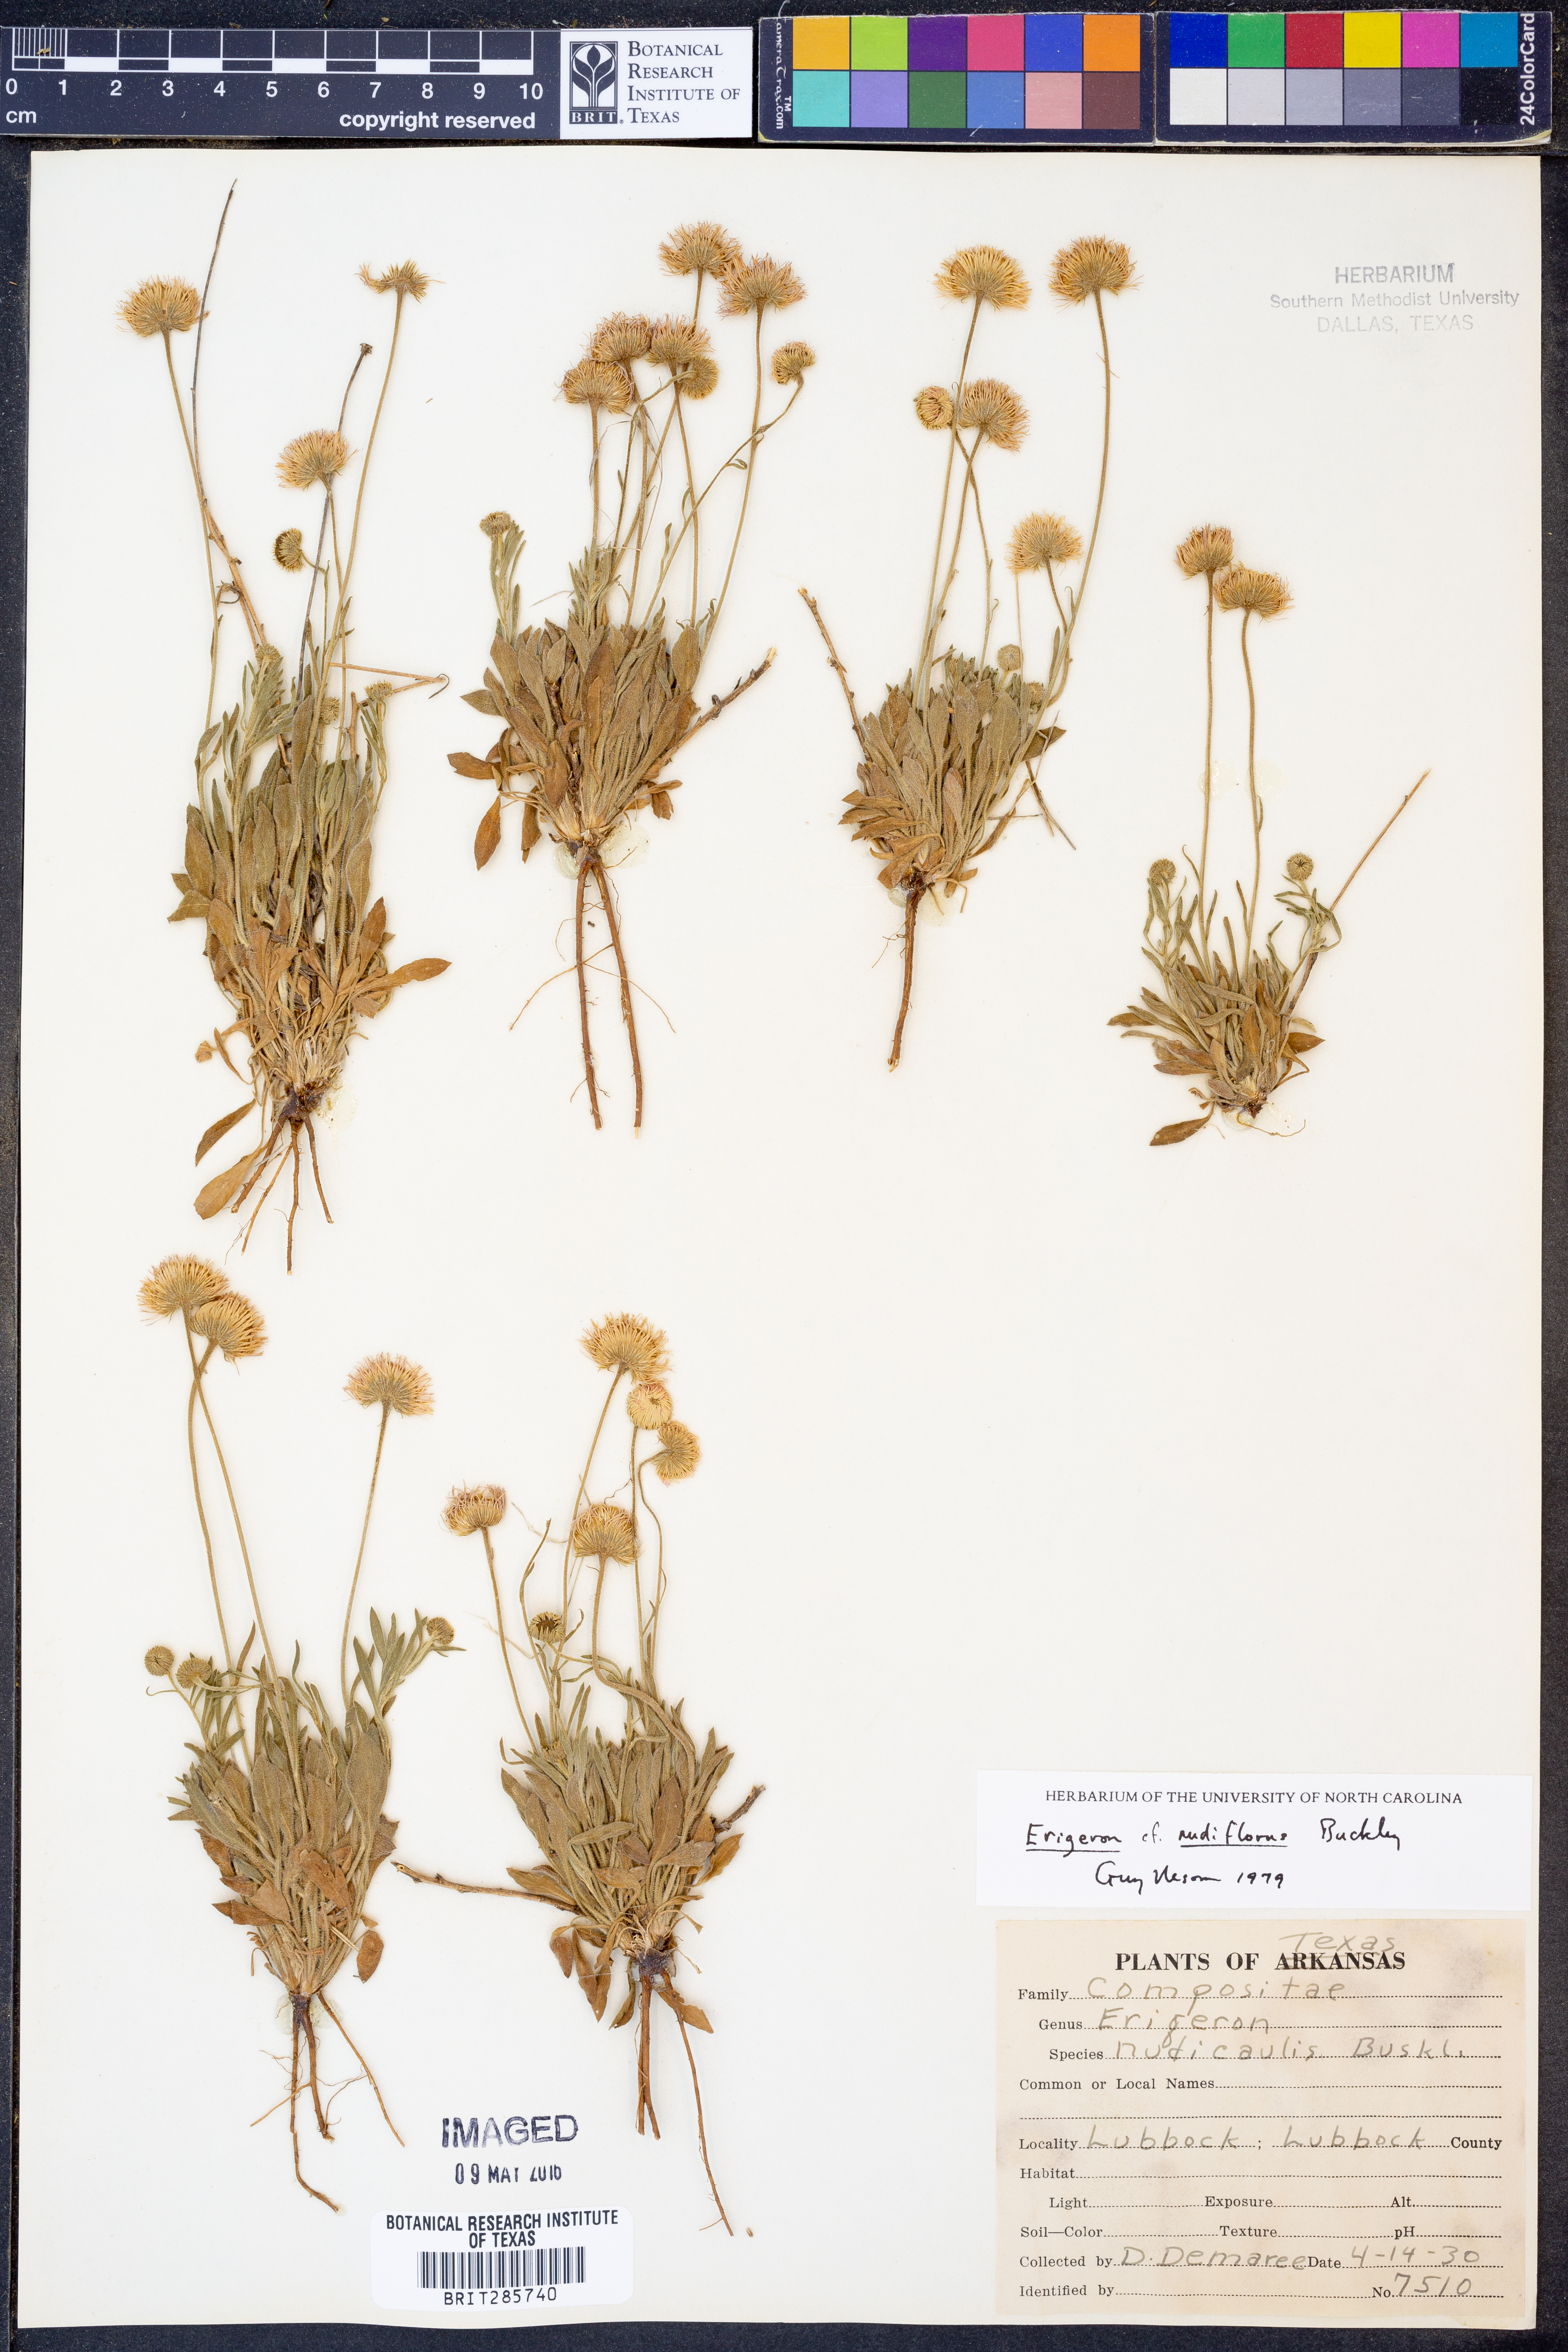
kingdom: Plantae
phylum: Tracheophyta
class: Magnoliopsida
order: Asterales
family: Asteraceae
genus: Erigeron
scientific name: Erigeron flagellaris
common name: Running fleabane
